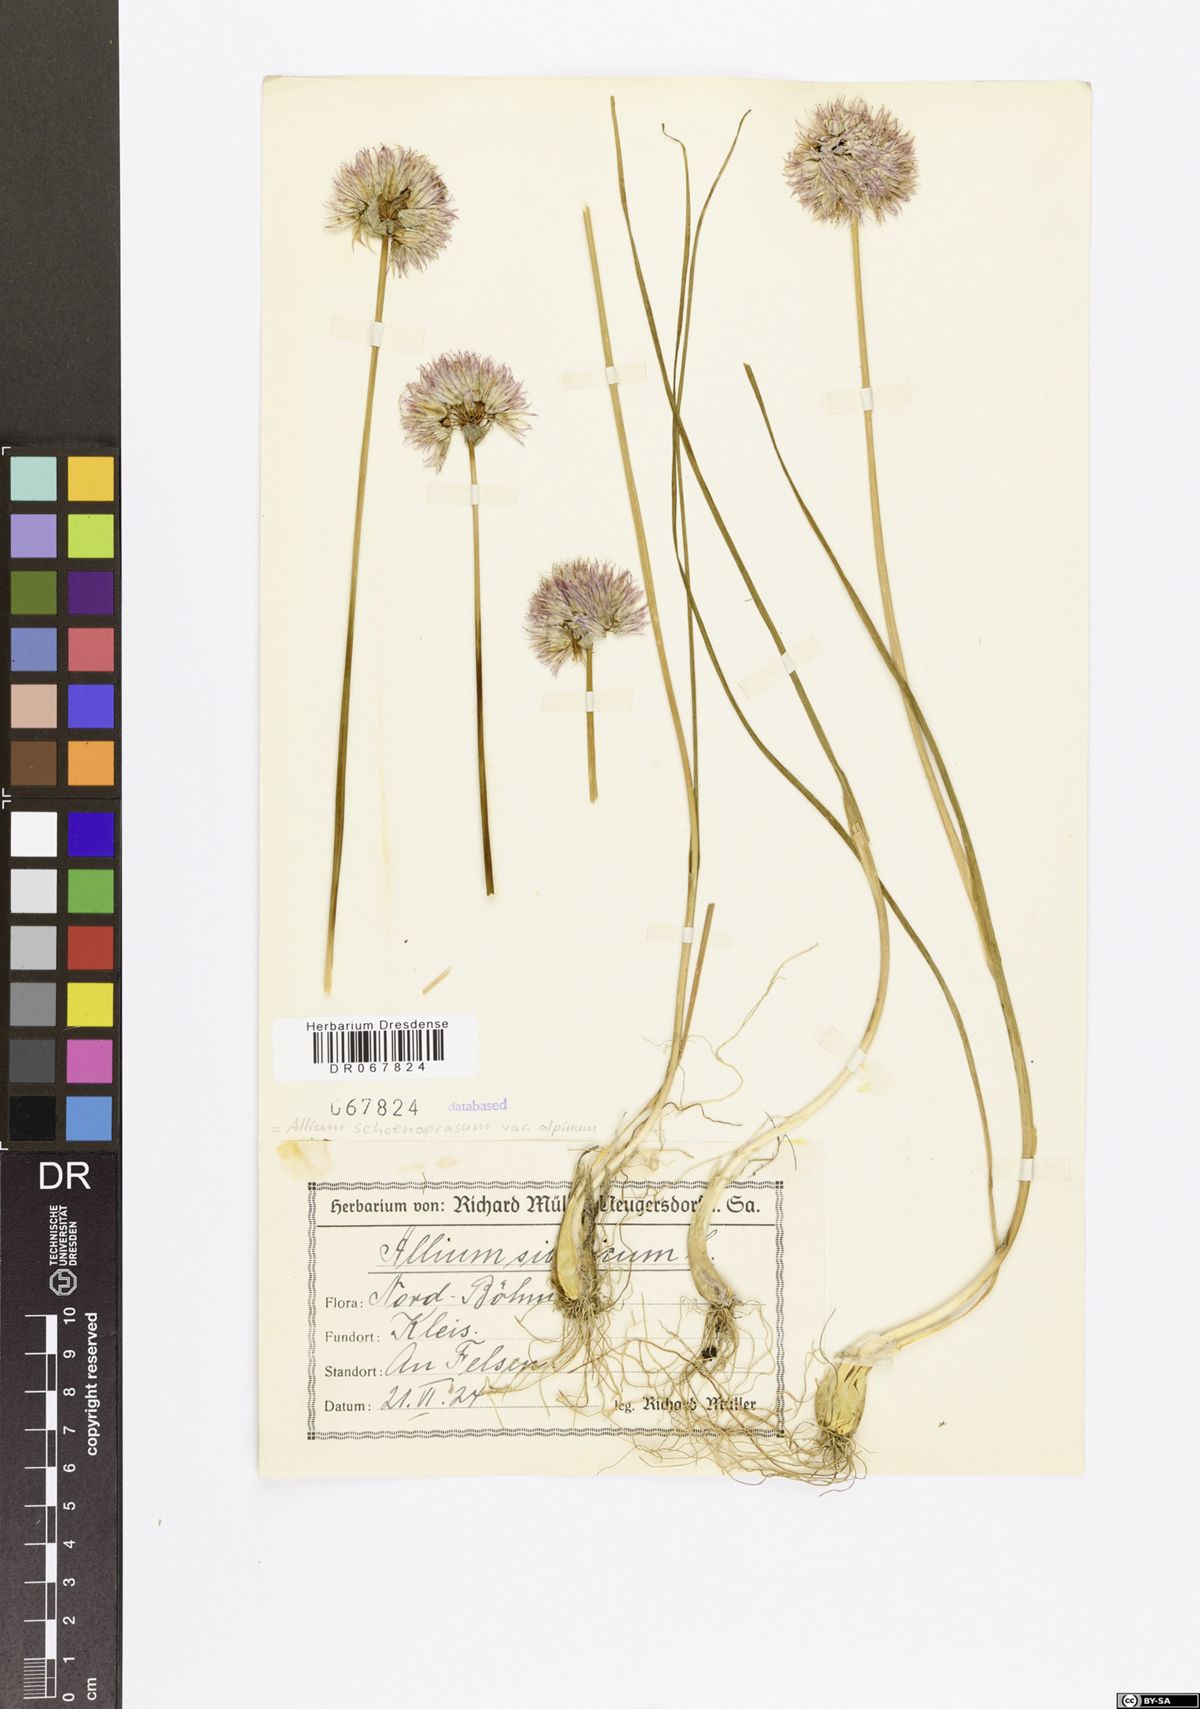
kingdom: Plantae
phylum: Tracheophyta
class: Liliopsida
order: Asparagales
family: Amaryllidaceae
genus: Allium
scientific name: Allium schoenoprasum
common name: Chives
